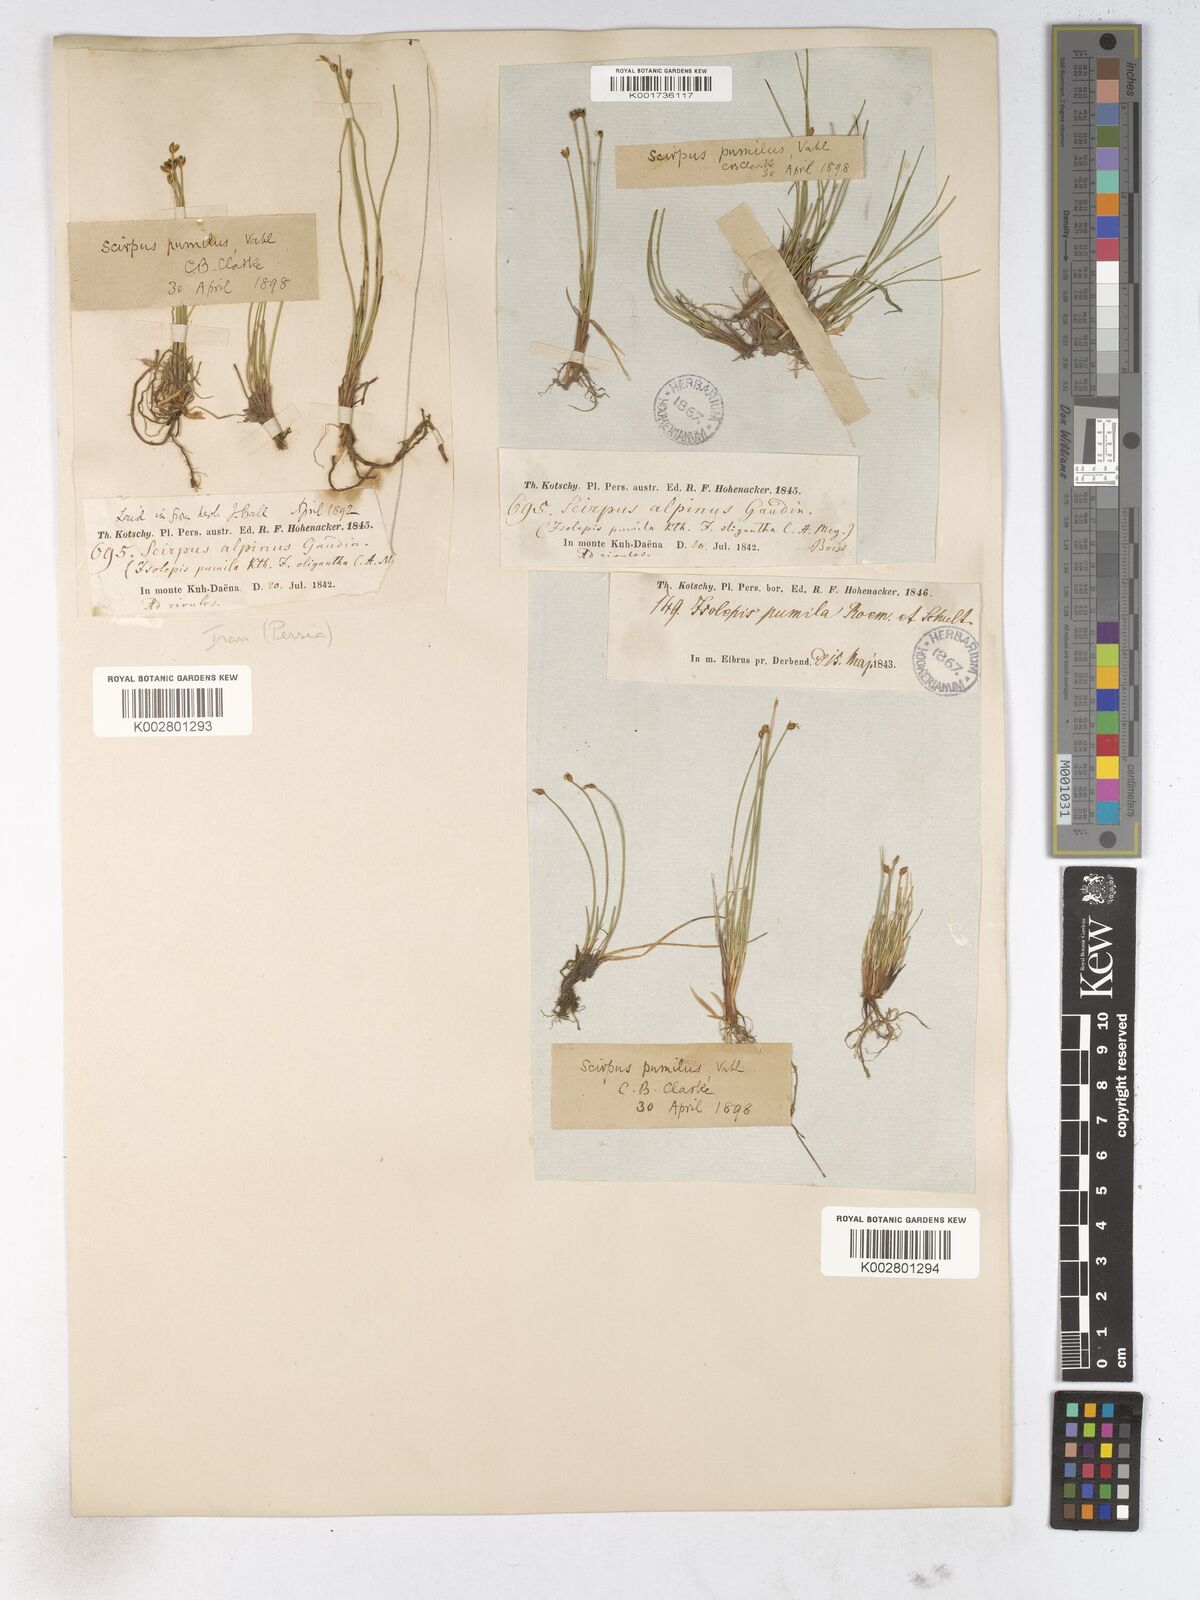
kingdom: Plantae
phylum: Tracheophyta
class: Liliopsida
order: Poales
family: Cyperaceae
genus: Trichophorum
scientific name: Trichophorum pumilum
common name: Rolland's bulrush
